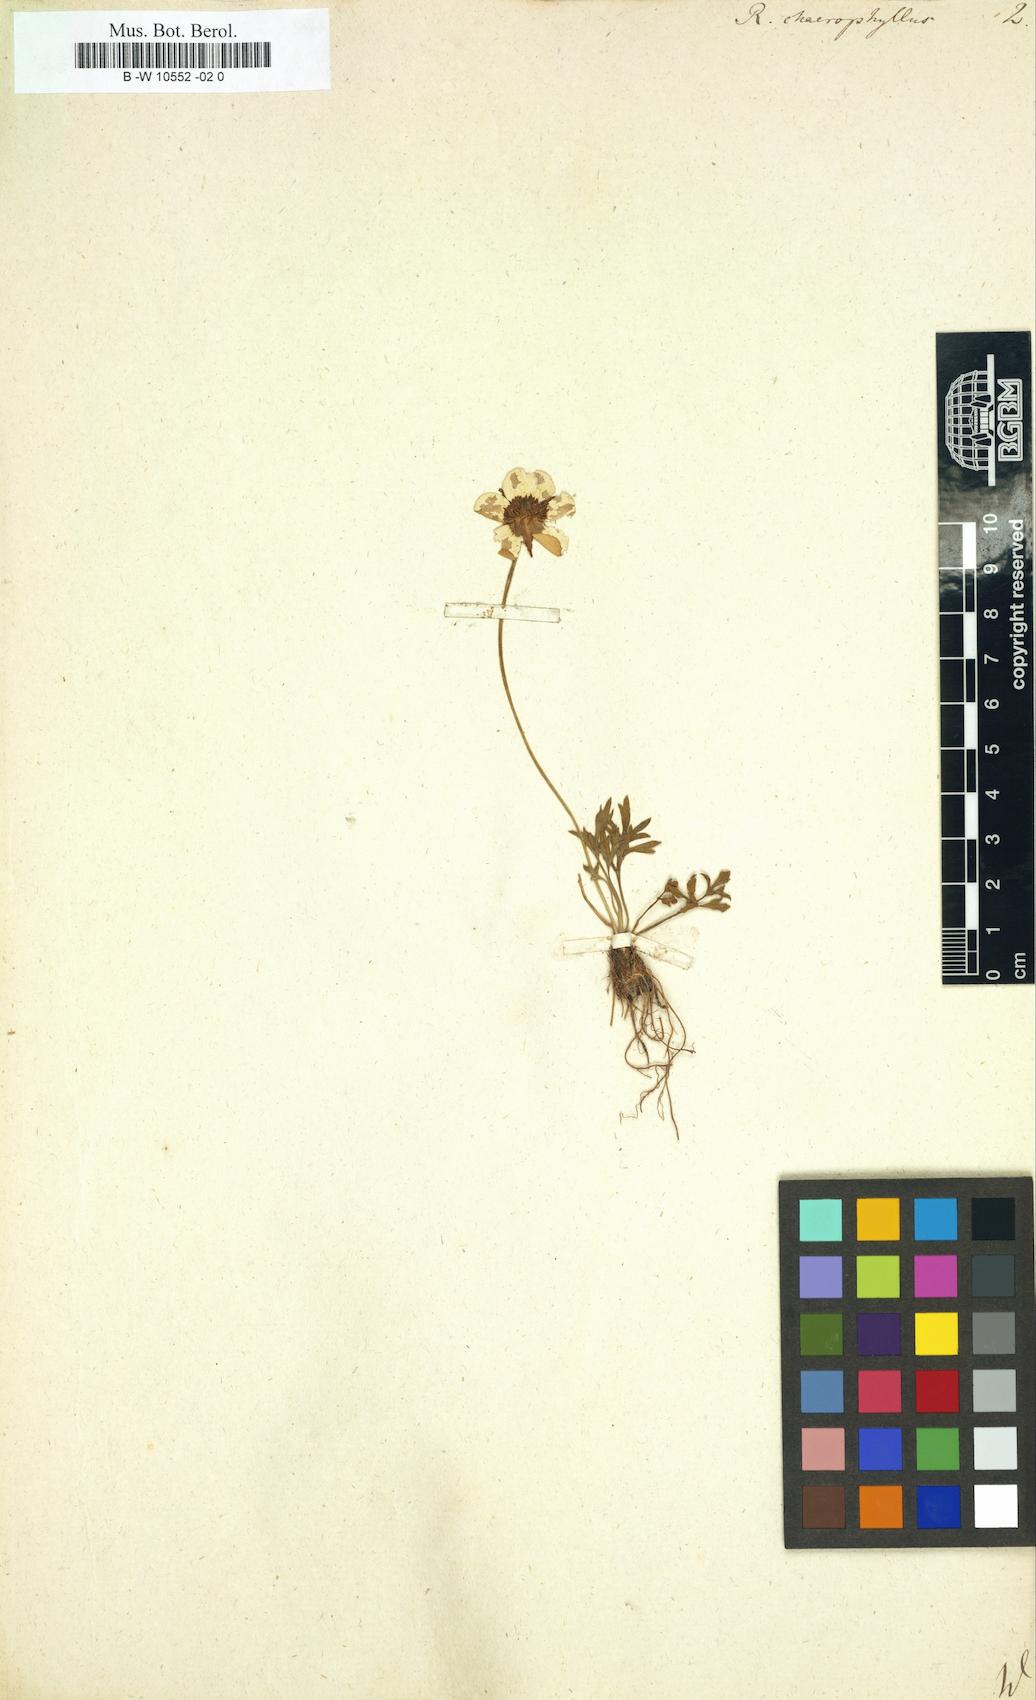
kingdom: Plantae
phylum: Tracheophyta
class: Magnoliopsida
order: Ranunculales
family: Ranunculaceae
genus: Ranunculus
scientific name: Ranunculus chaerophyllos
